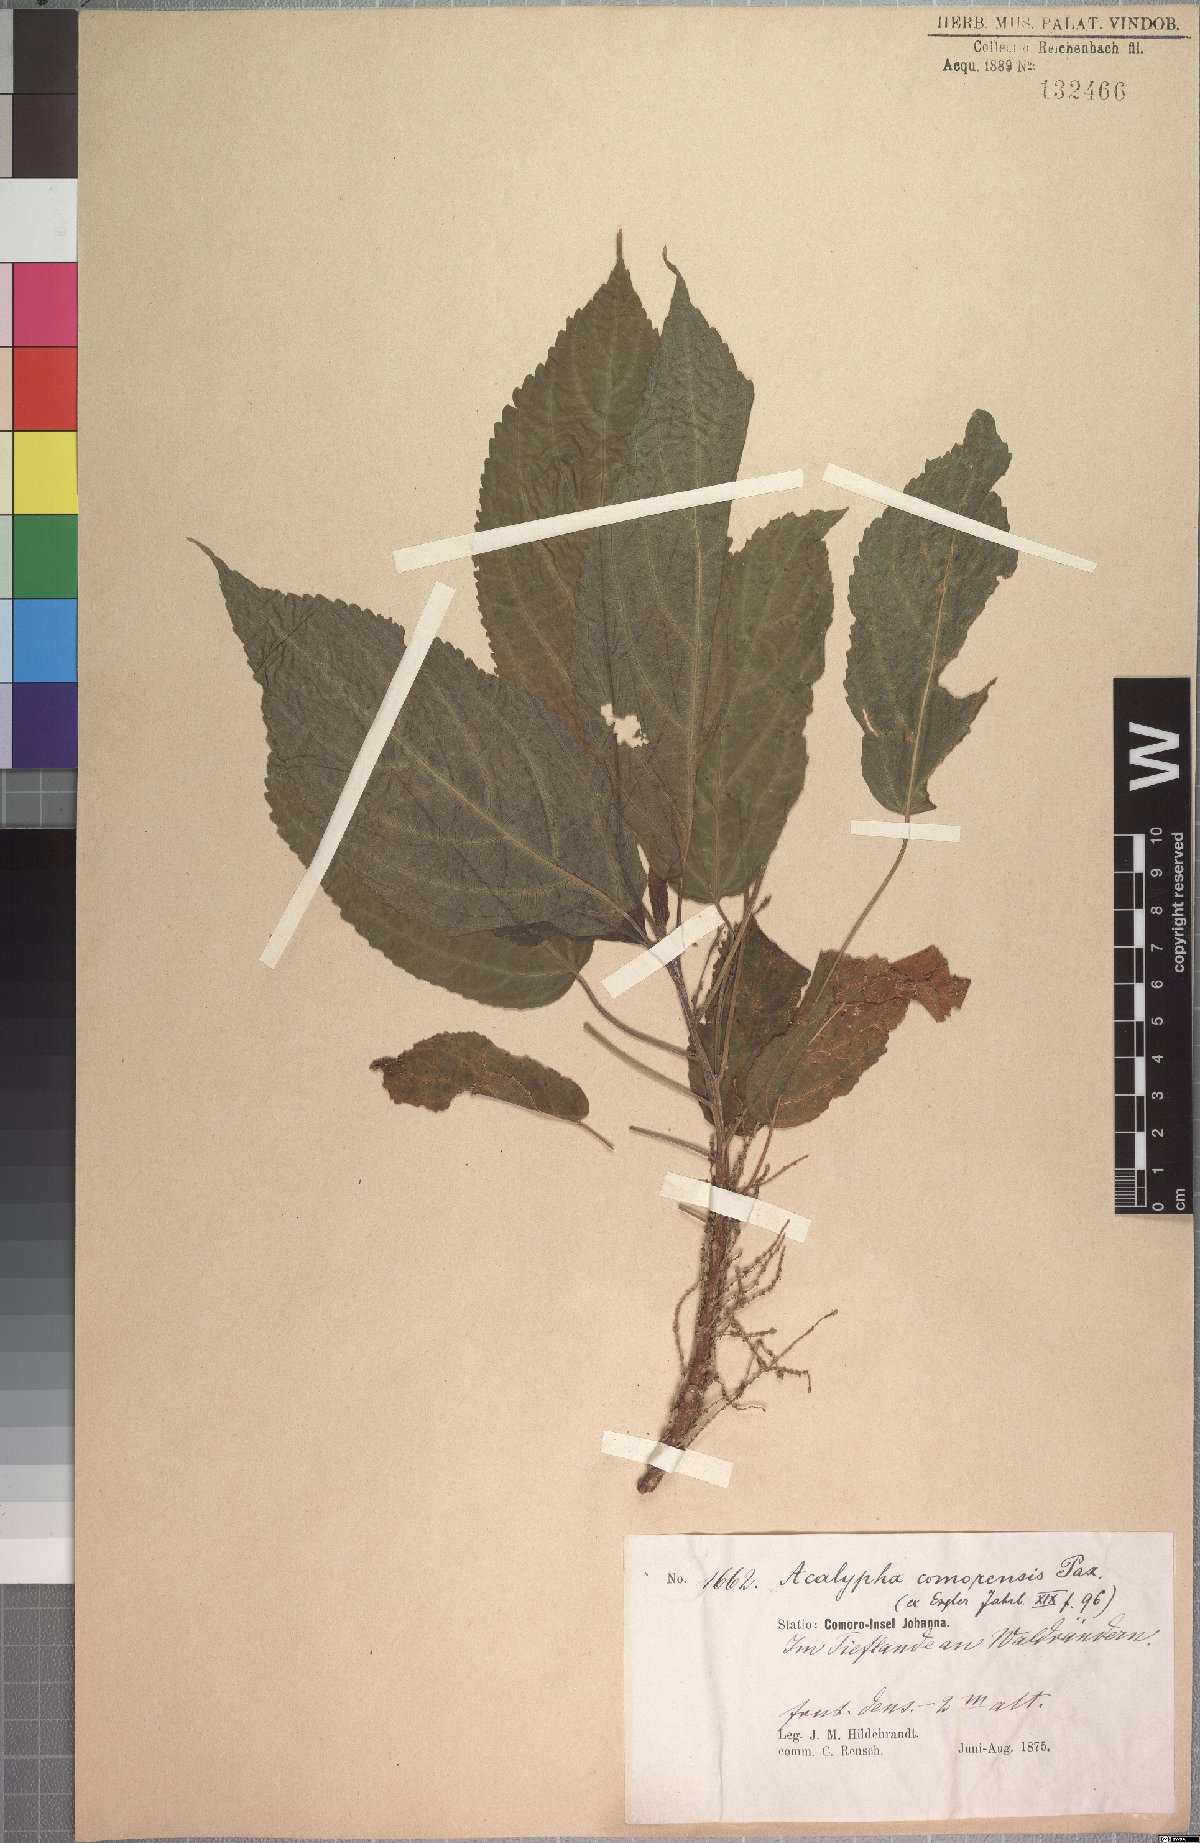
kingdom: Plantae
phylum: Tracheophyta
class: Magnoliopsida
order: Malpighiales
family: Euphorbiaceae
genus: Acalypha
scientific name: Acalypha chibomboa
